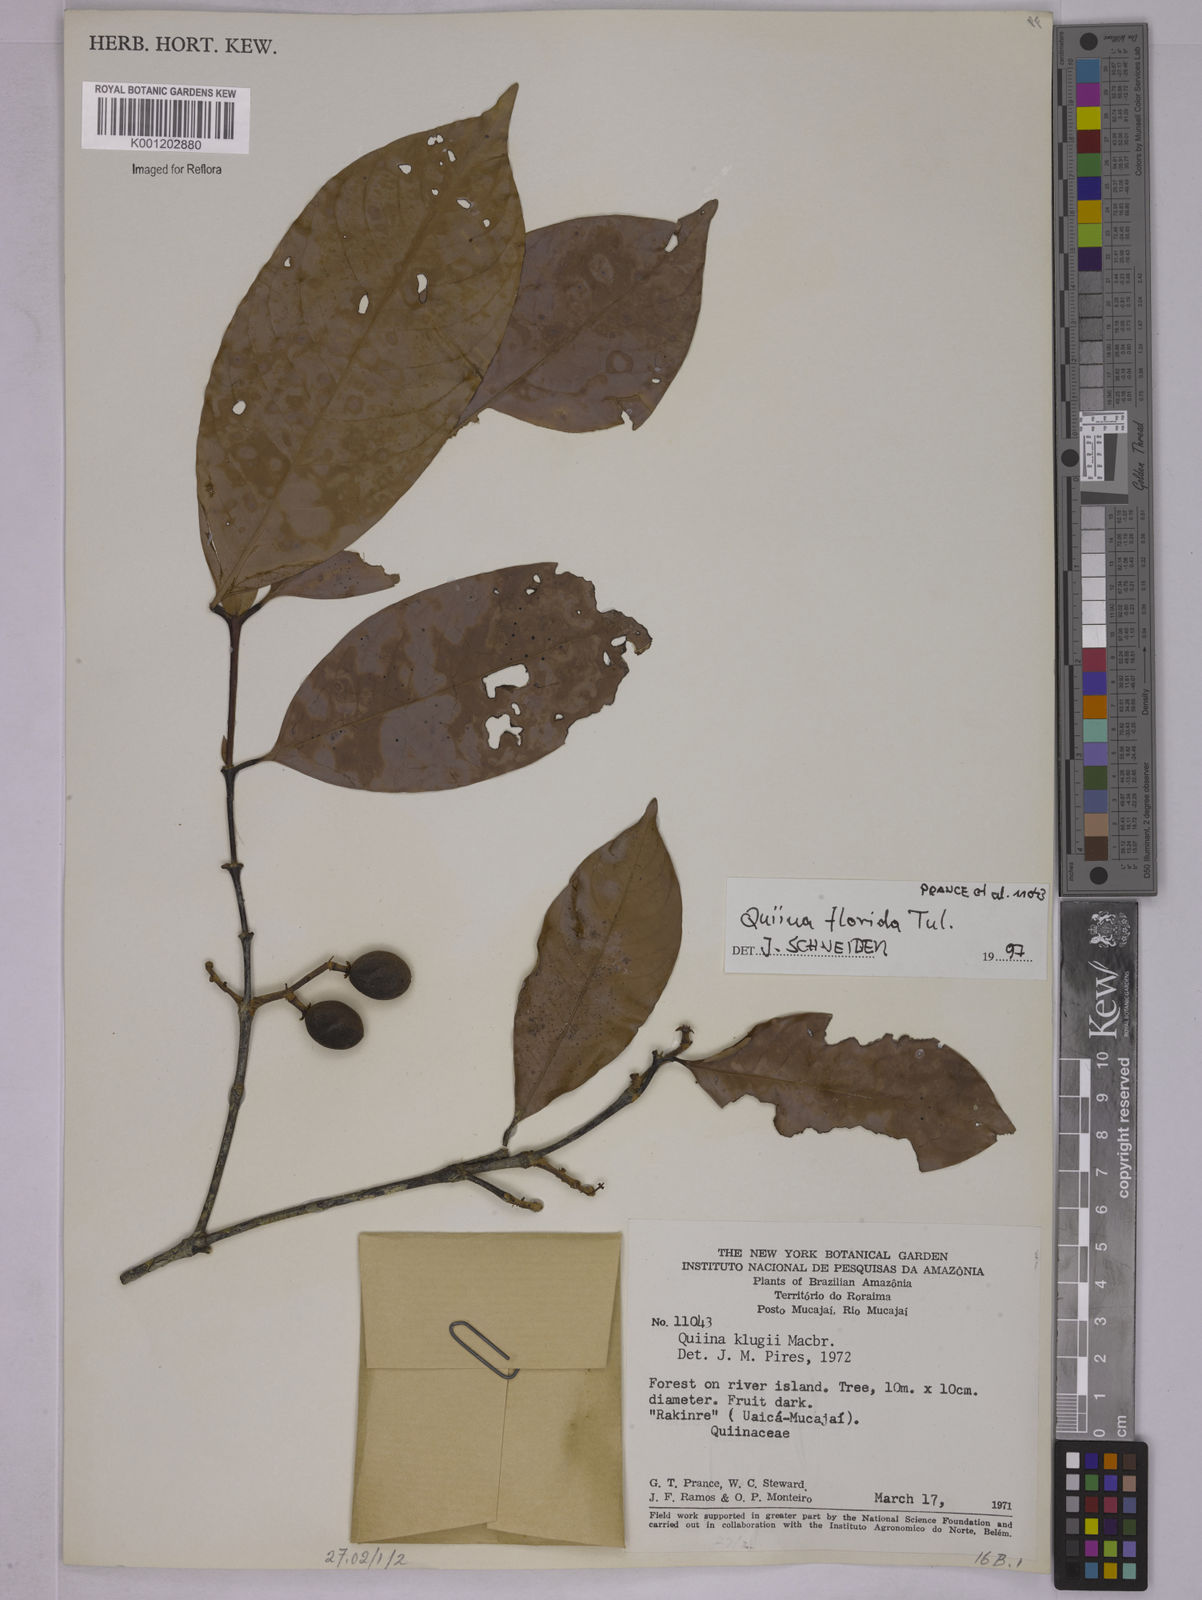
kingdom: Plantae
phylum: Tracheophyta
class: Magnoliopsida
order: Malpighiales
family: Quiinaceae
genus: Quiina
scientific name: Quiina florida
